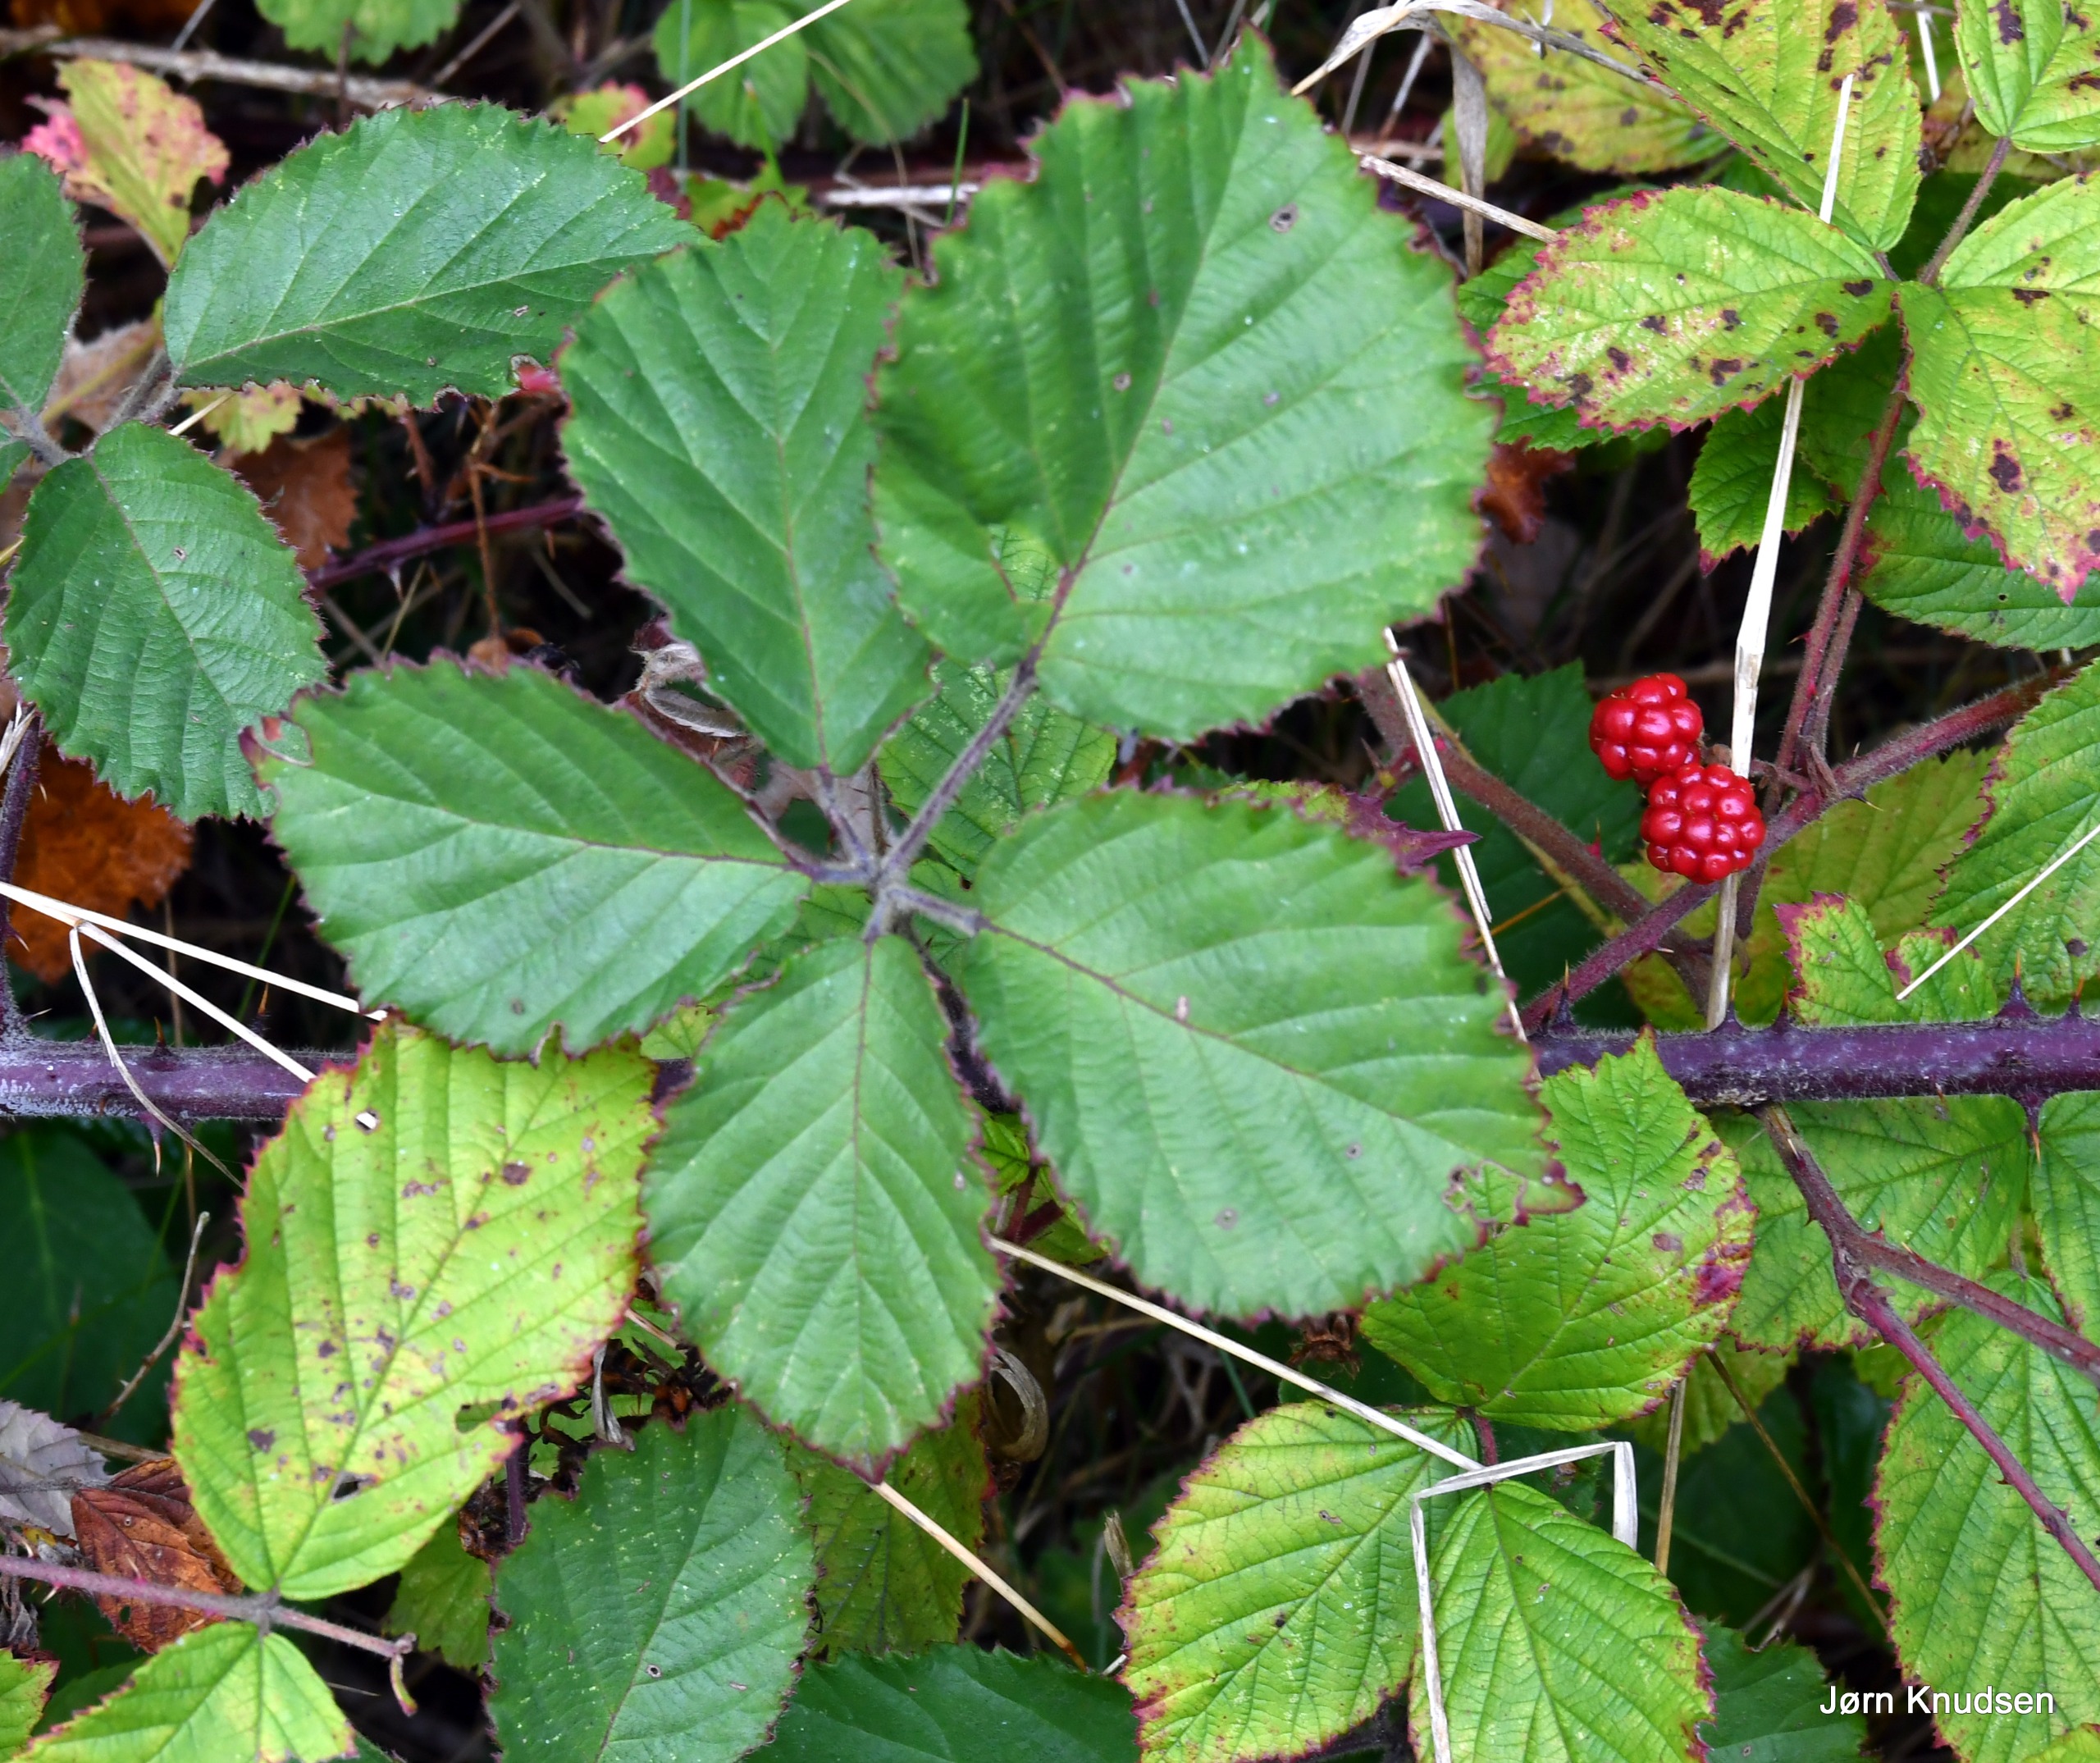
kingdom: Plantae
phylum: Tracheophyta
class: Magnoliopsida
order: Rosales
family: Rosaceae
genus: Rubus
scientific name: Rubus vestitus
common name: Rundbladet brombær
